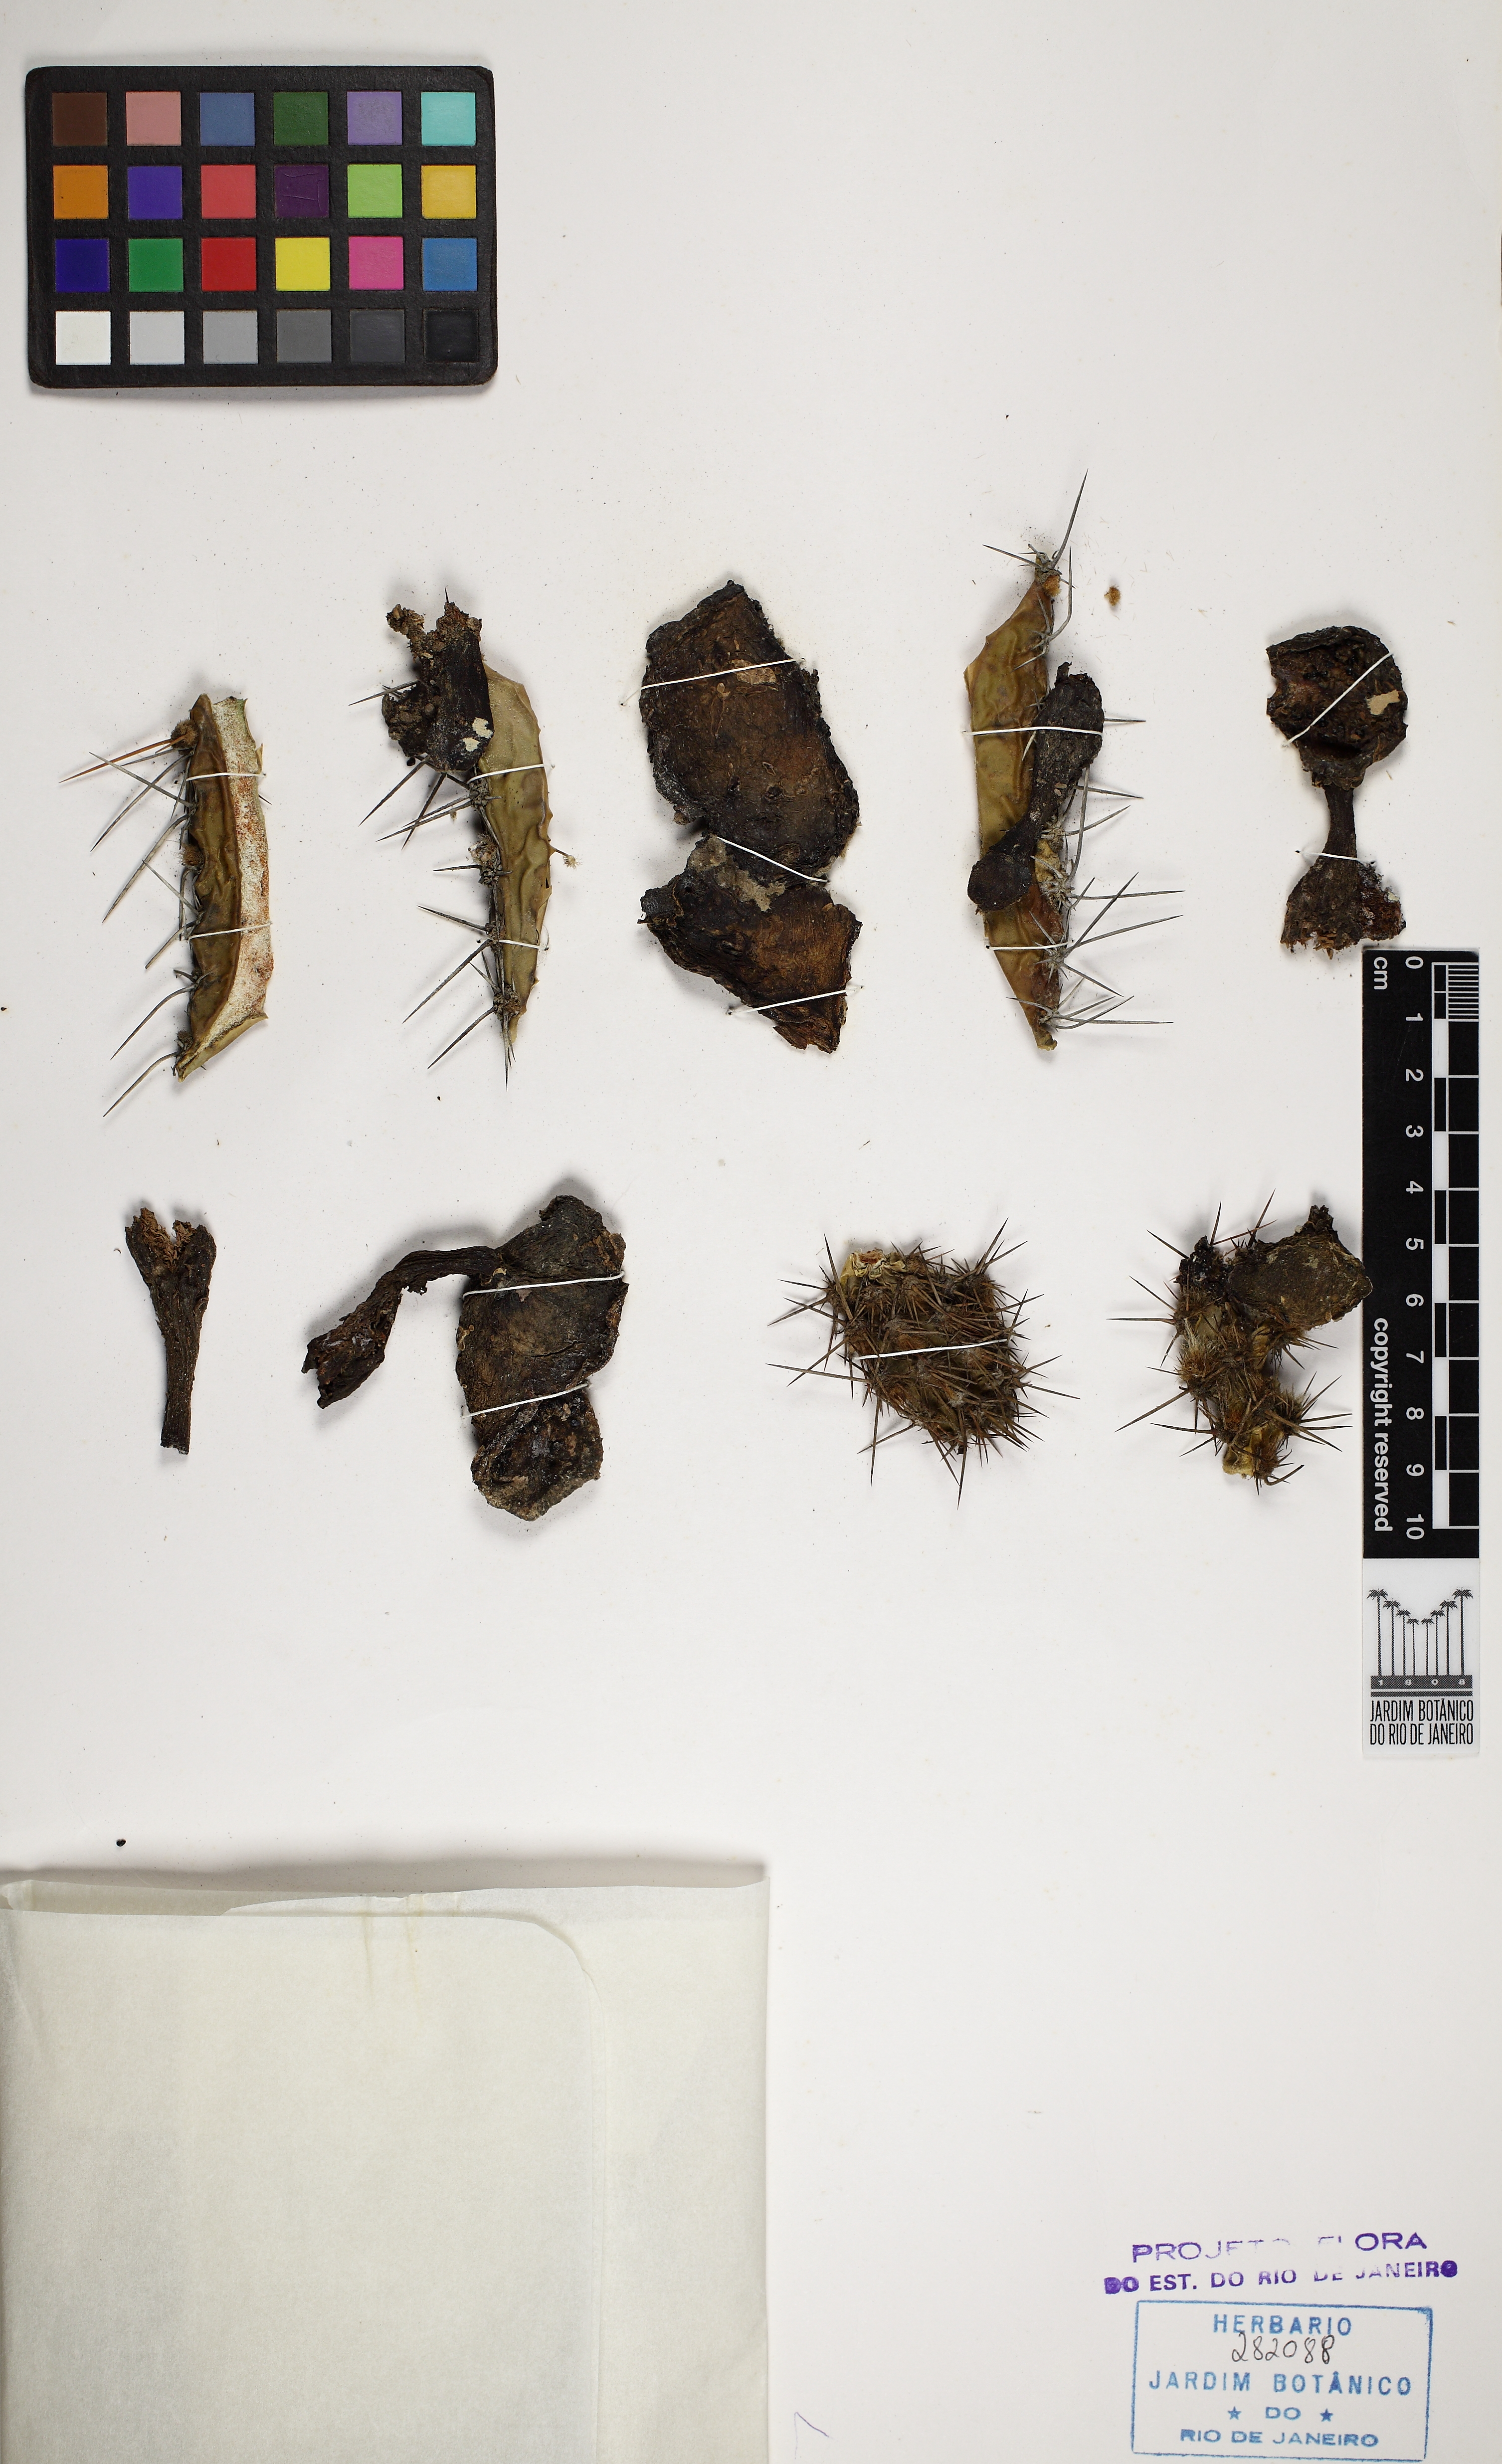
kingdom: Plantae
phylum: Tracheophyta
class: Magnoliopsida
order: Caryophyllales
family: Cactaceae
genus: Pilosocereus
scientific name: Pilosocereus arrabidae
